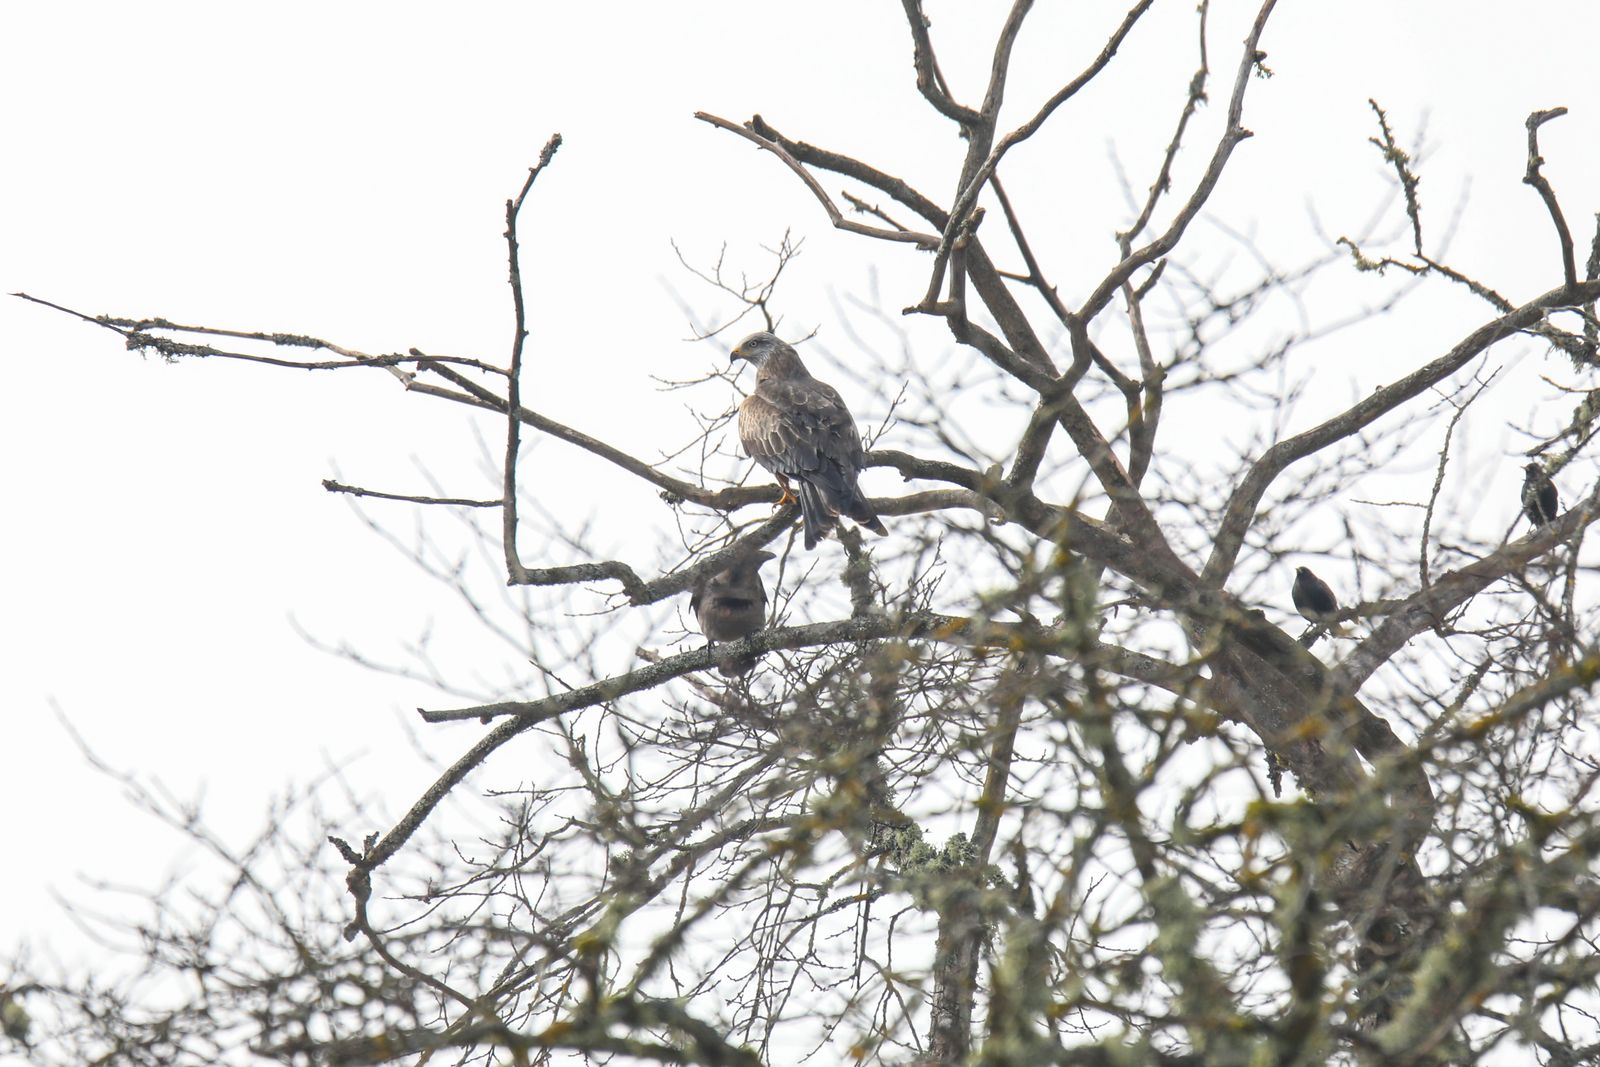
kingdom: Animalia
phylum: Chordata
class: Aves
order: Accipitriformes
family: Accipitridae
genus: Milvus
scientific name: Milvus
